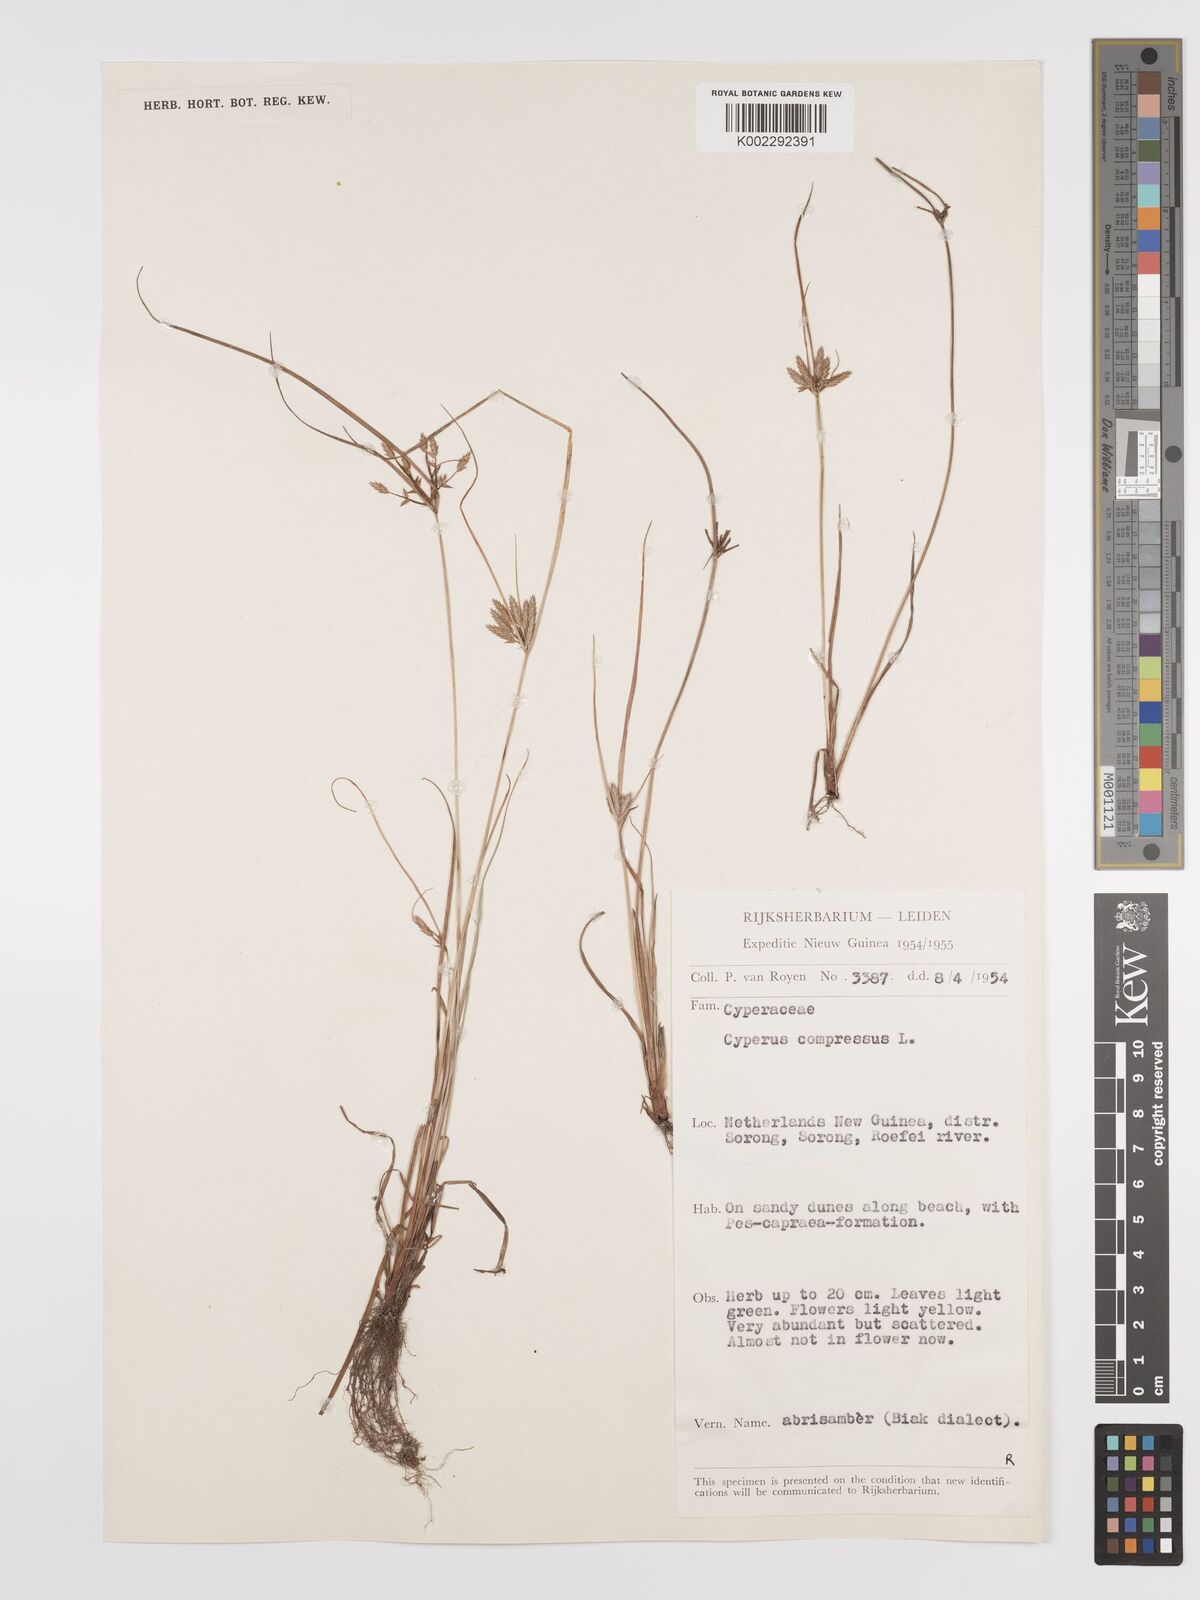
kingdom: Plantae
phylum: Tracheophyta
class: Liliopsida
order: Poales
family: Cyperaceae
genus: Cyperus
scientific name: Cyperus compressus
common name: Poorland flatsedge
